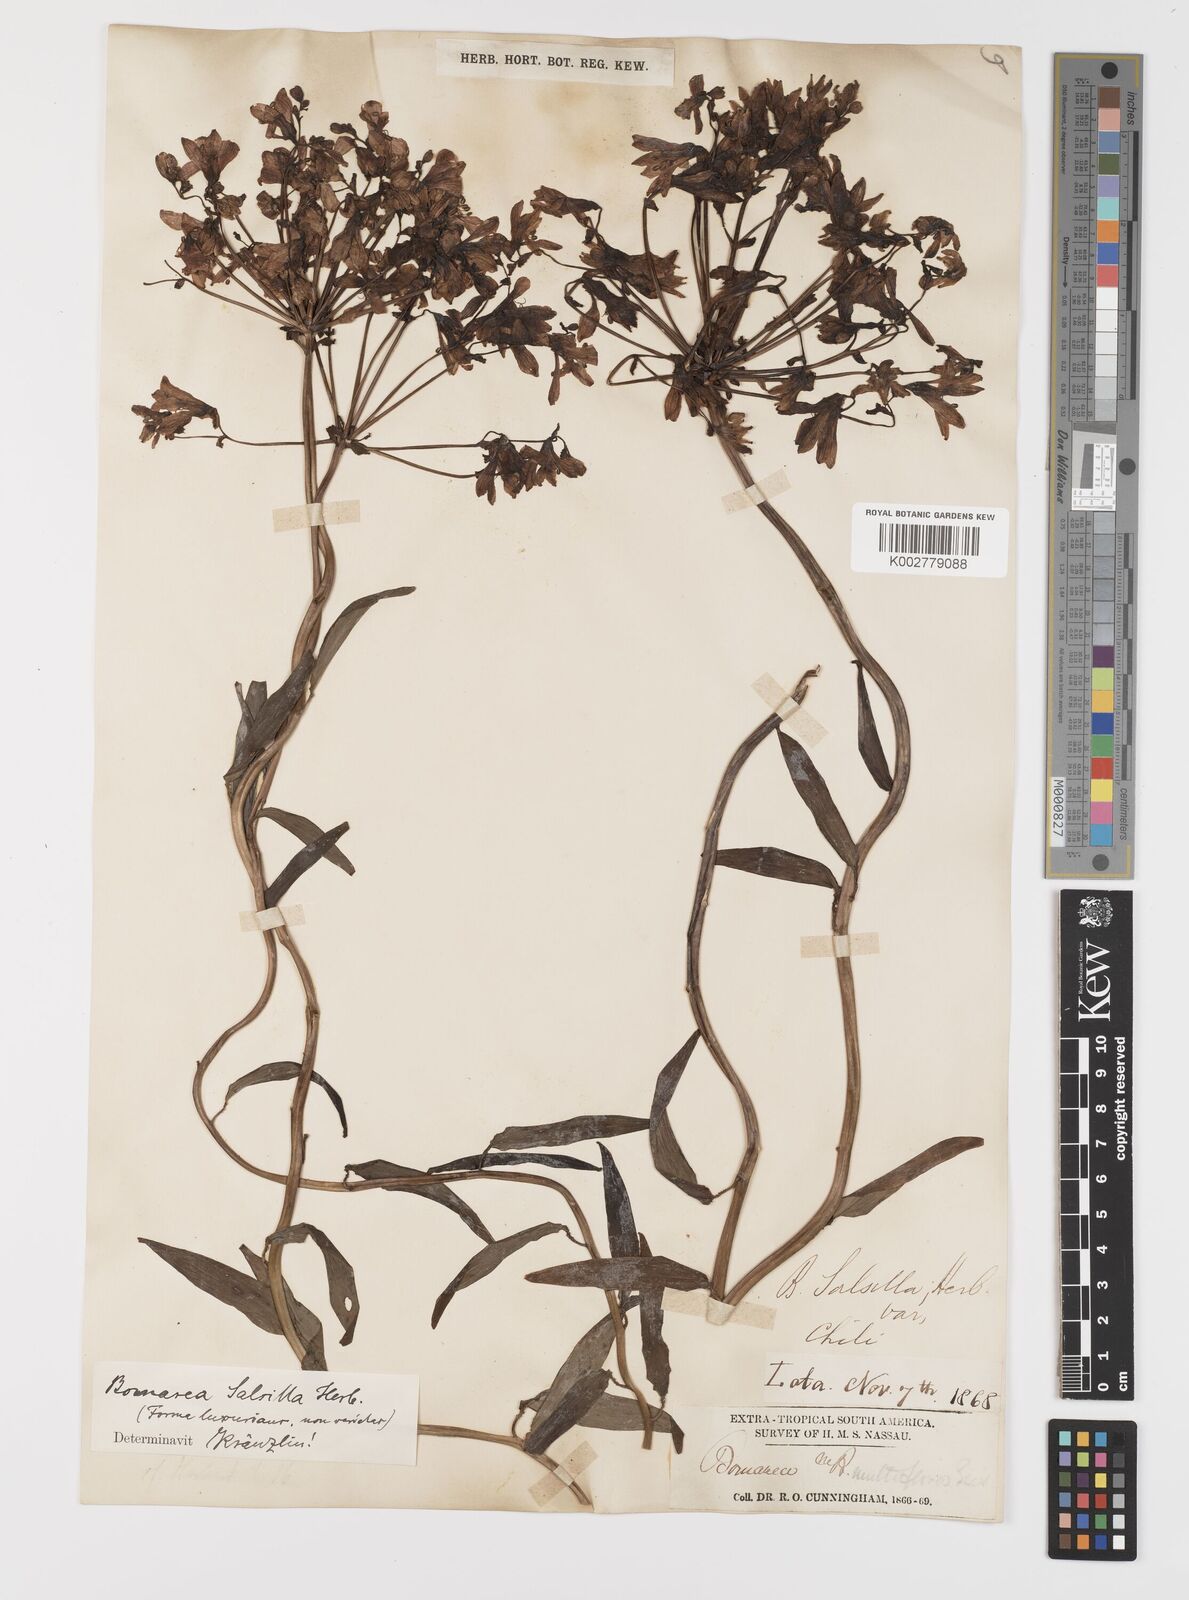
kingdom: Plantae
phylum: Tracheophyta
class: Liliopsida
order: Liliales
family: Alstroemeriaceae
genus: Bomarea
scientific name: Bomarea edulis
